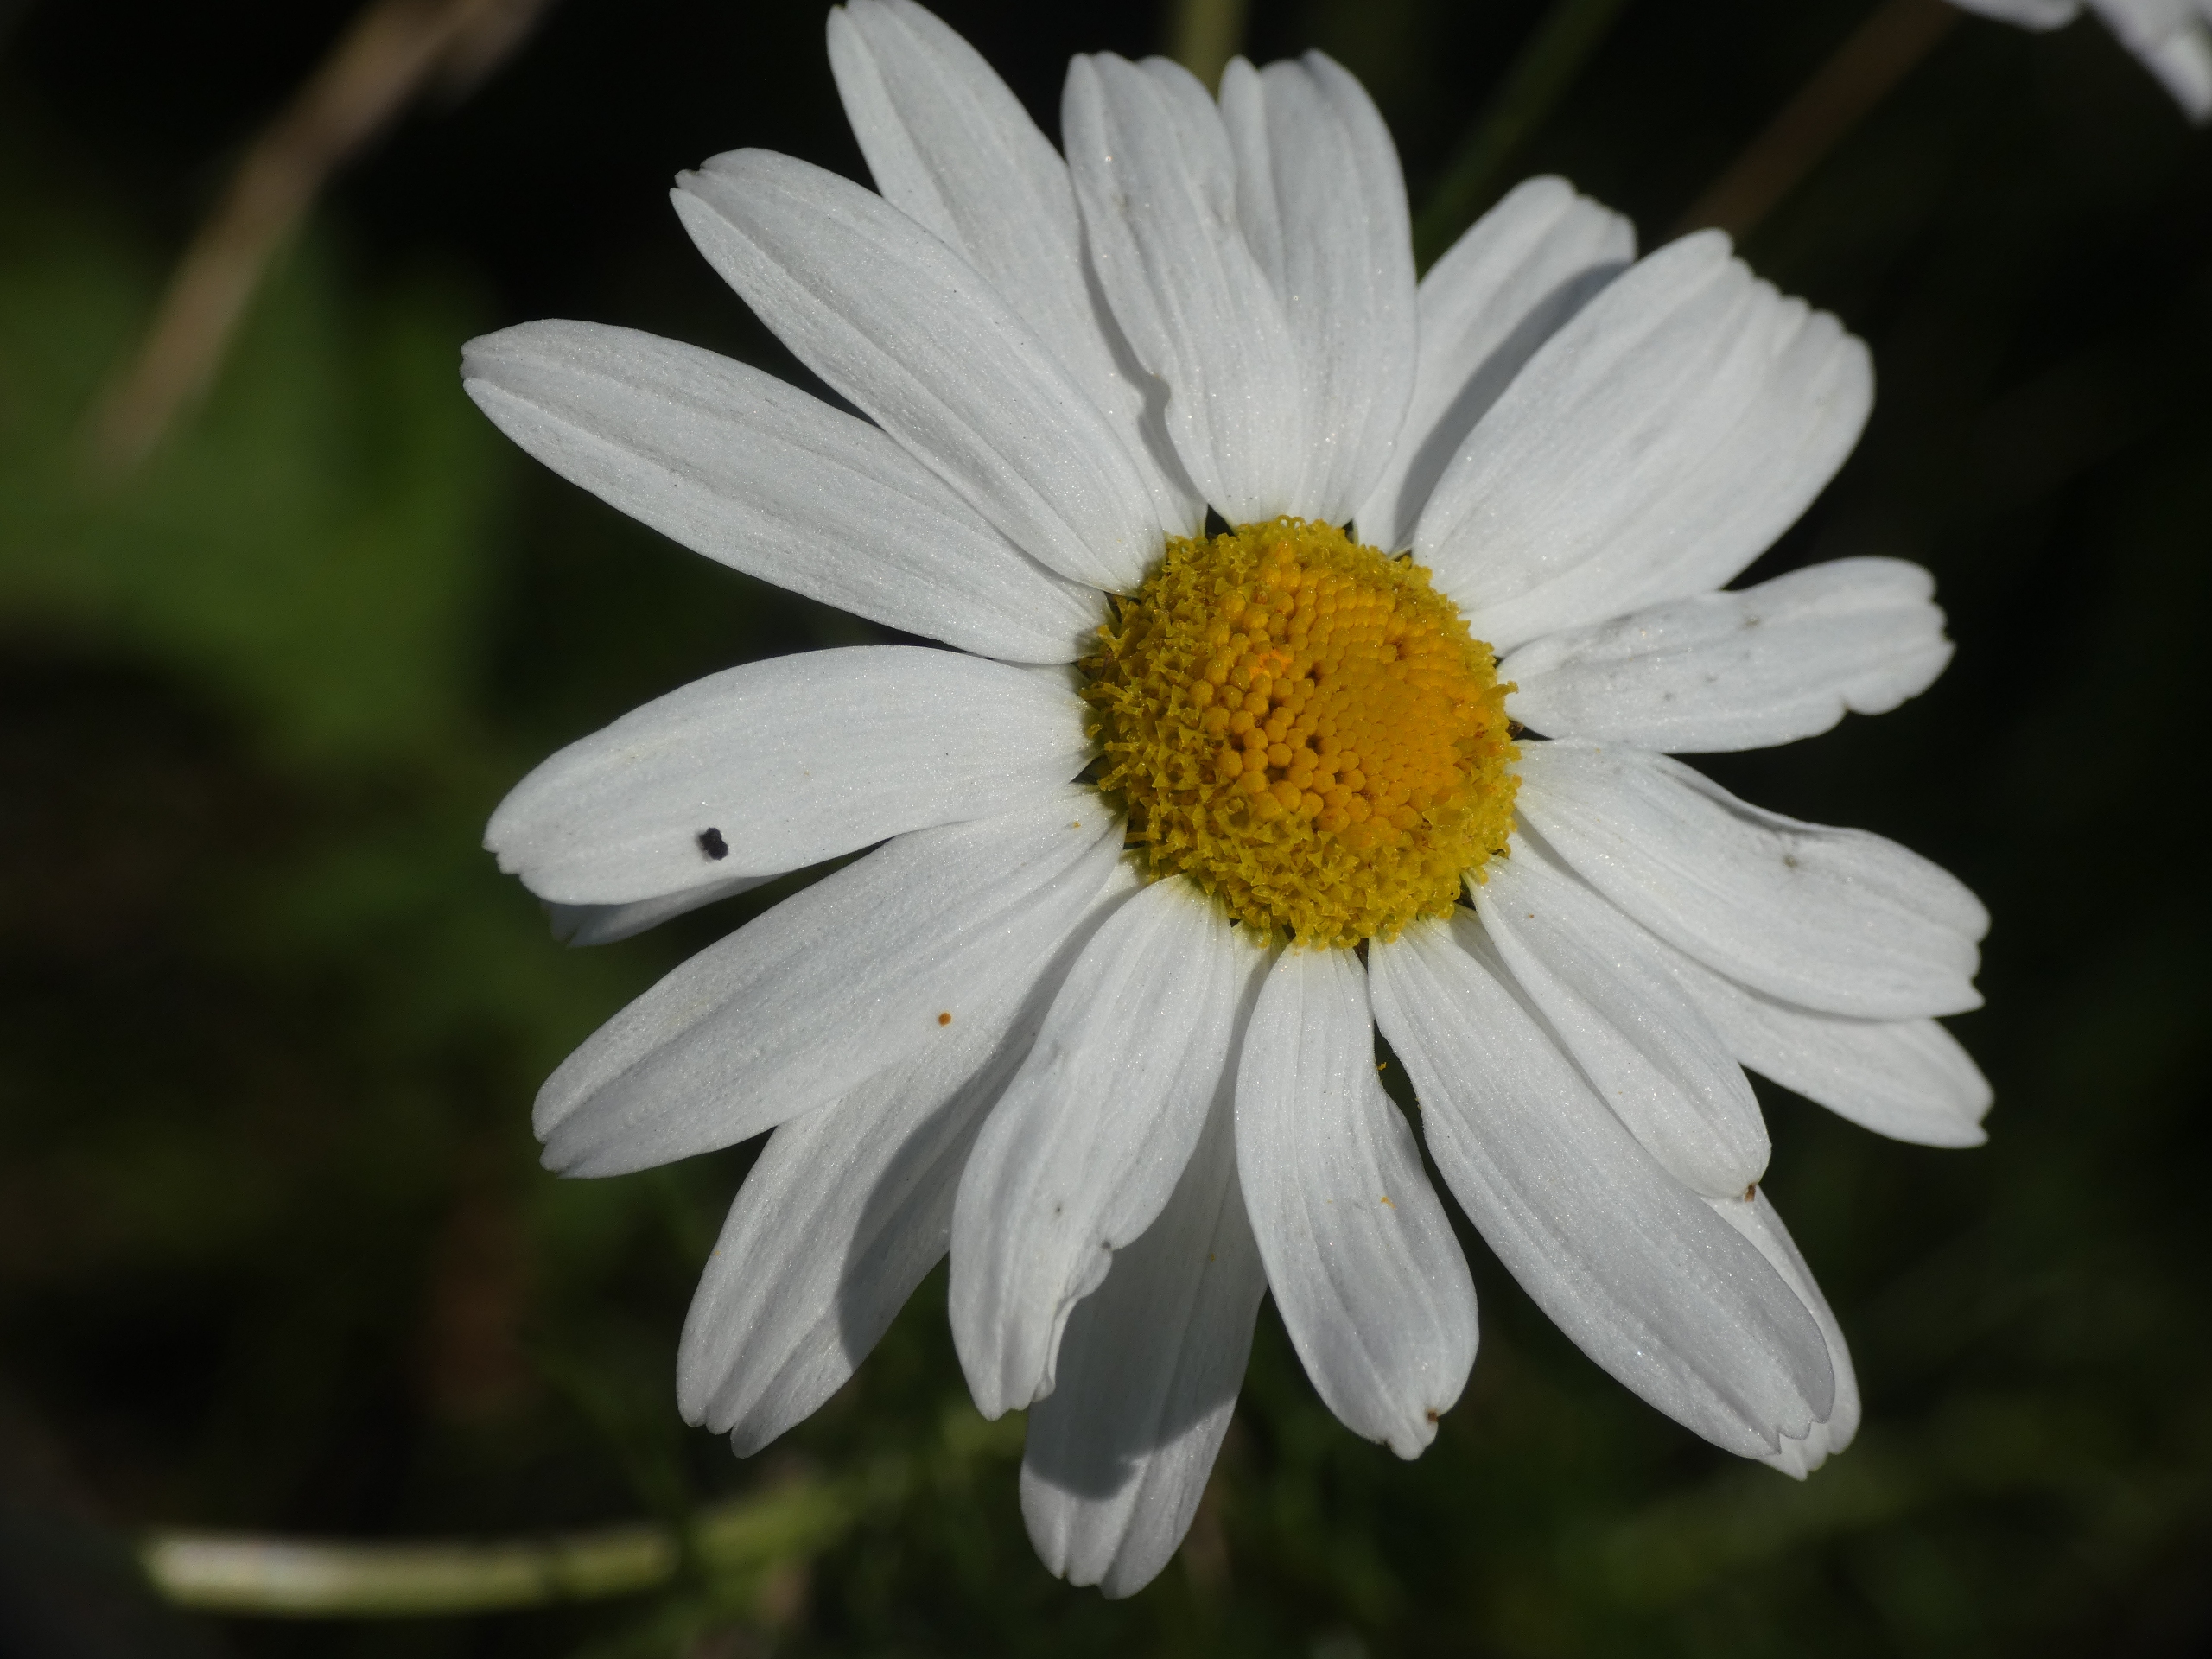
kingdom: Plantae
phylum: Tracheophyta
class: Magnoliopsida
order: Asterales
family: Asteraceae
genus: Tripleurospermum
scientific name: Tripleurospermum inodorum
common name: Lugtløs kamille
